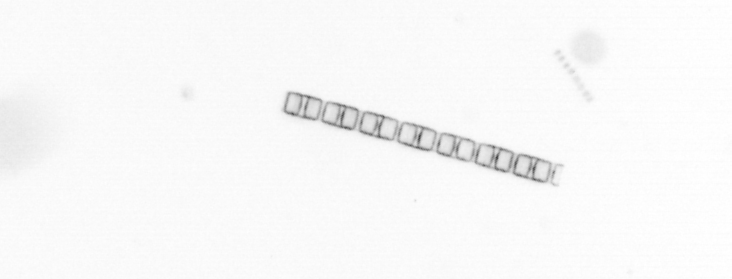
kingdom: Chromista
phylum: Ochrophyta
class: Bacillariophyceae
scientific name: Bacillariophyceae
